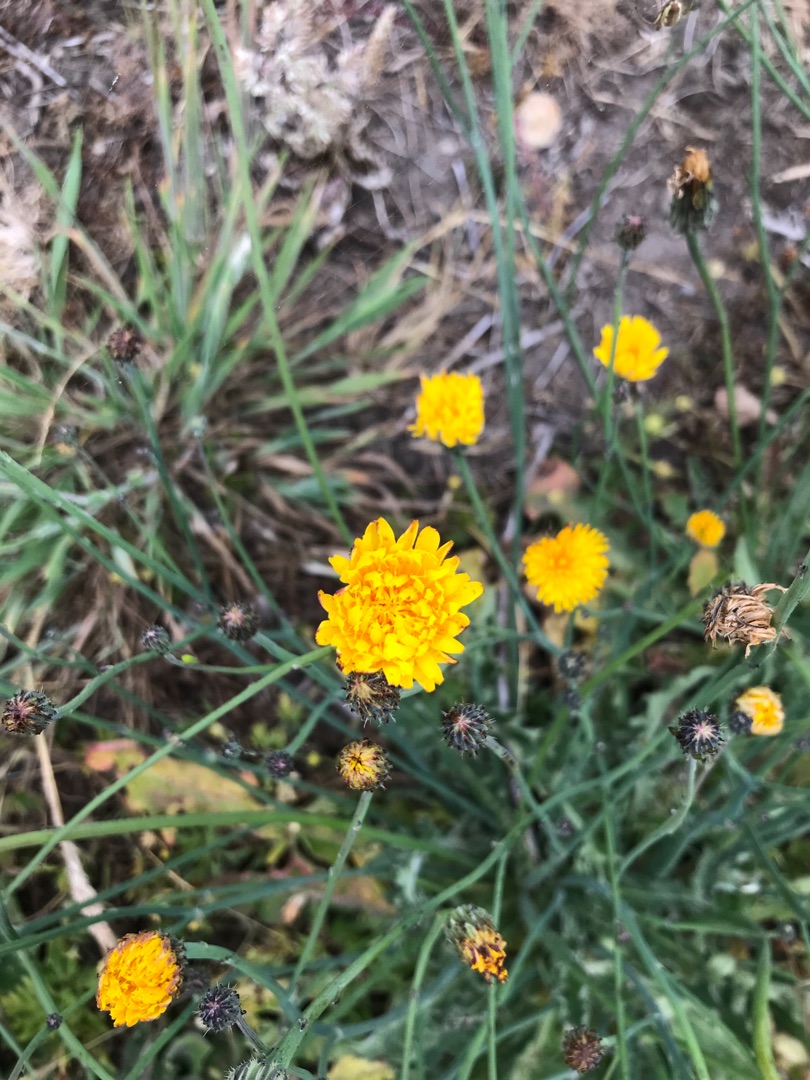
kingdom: Plantae
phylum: Tracheophyta
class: Magnoliopsida
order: Asterales
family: Asteraceae
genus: Hypochaeris
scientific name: Hypochaeris radicata
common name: Almindelig kongepen
